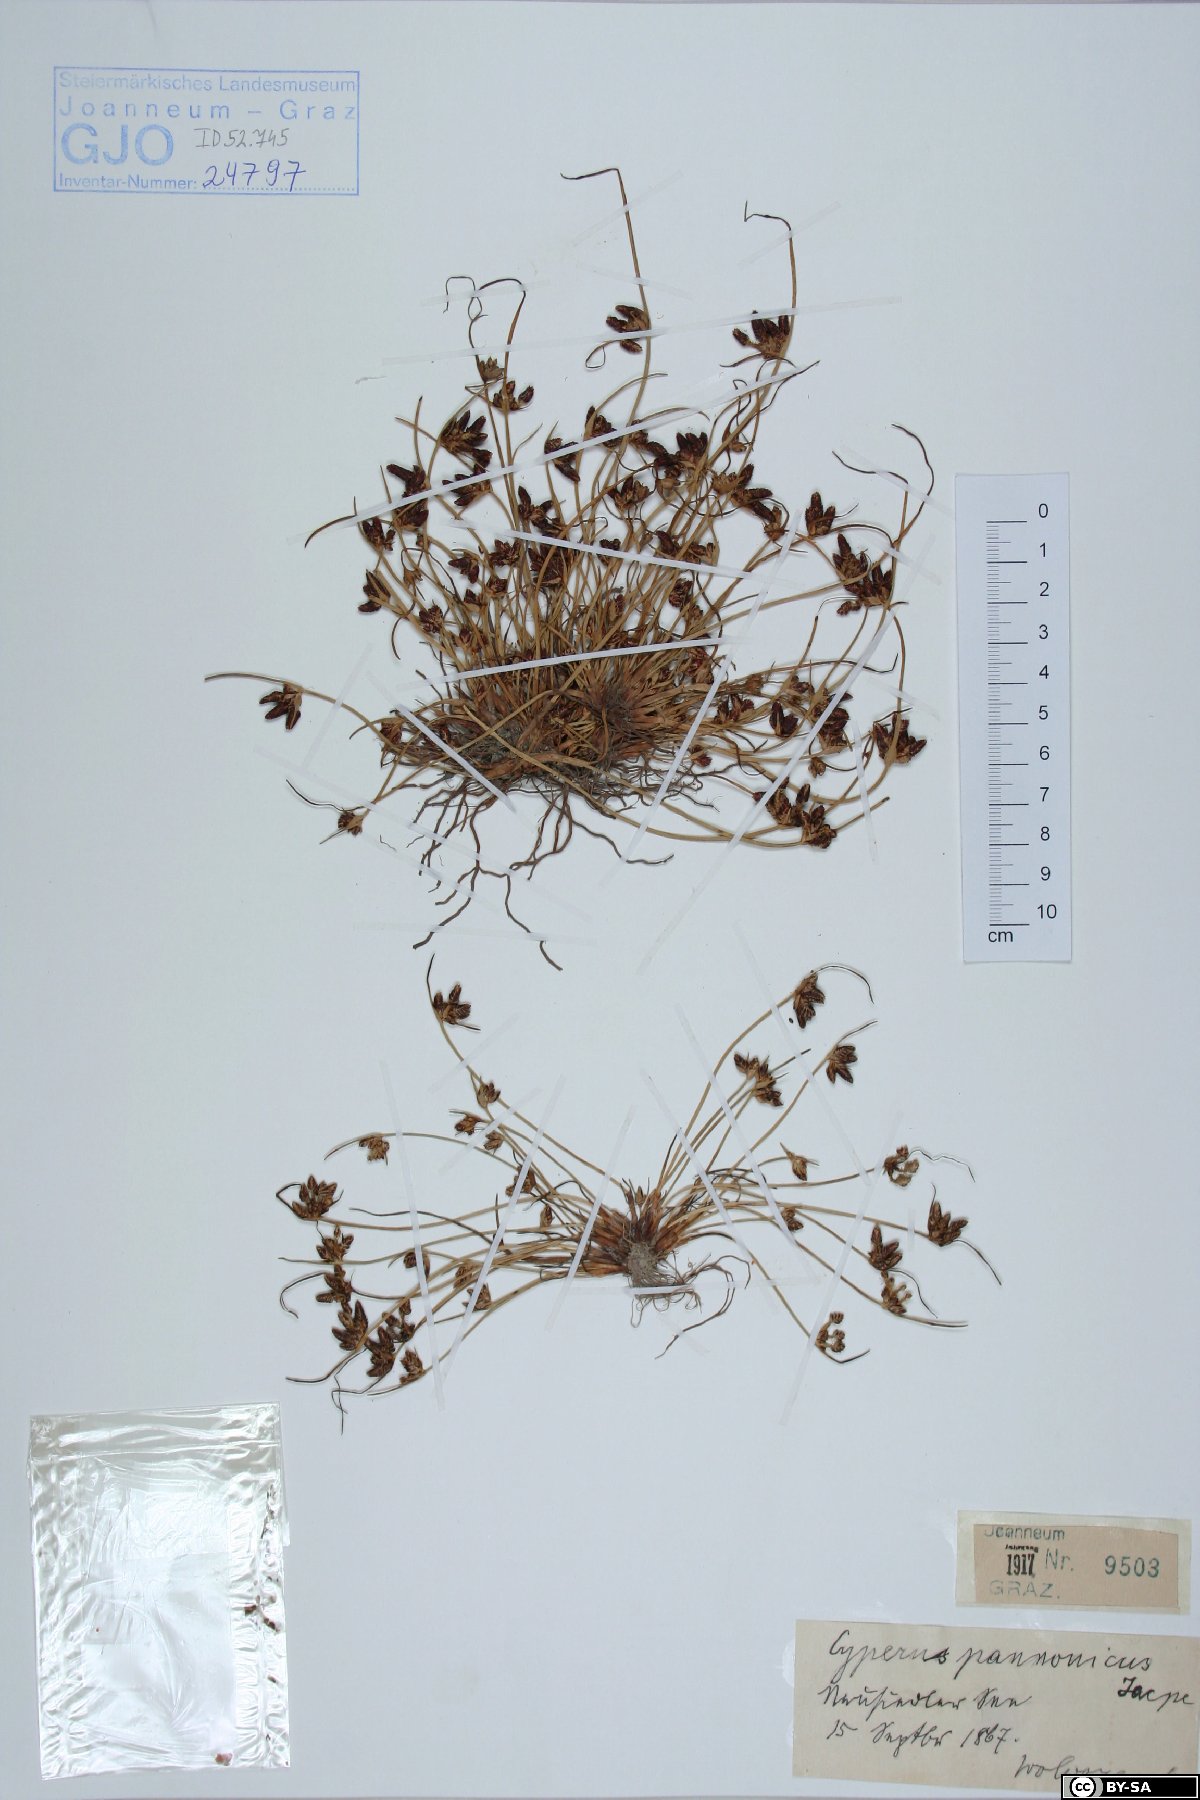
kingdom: Plantae
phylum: Tracheophyta
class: Liliopsida
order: Poales
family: Cyperaceae
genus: Cyperus
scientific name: Cyperus pannonicus
